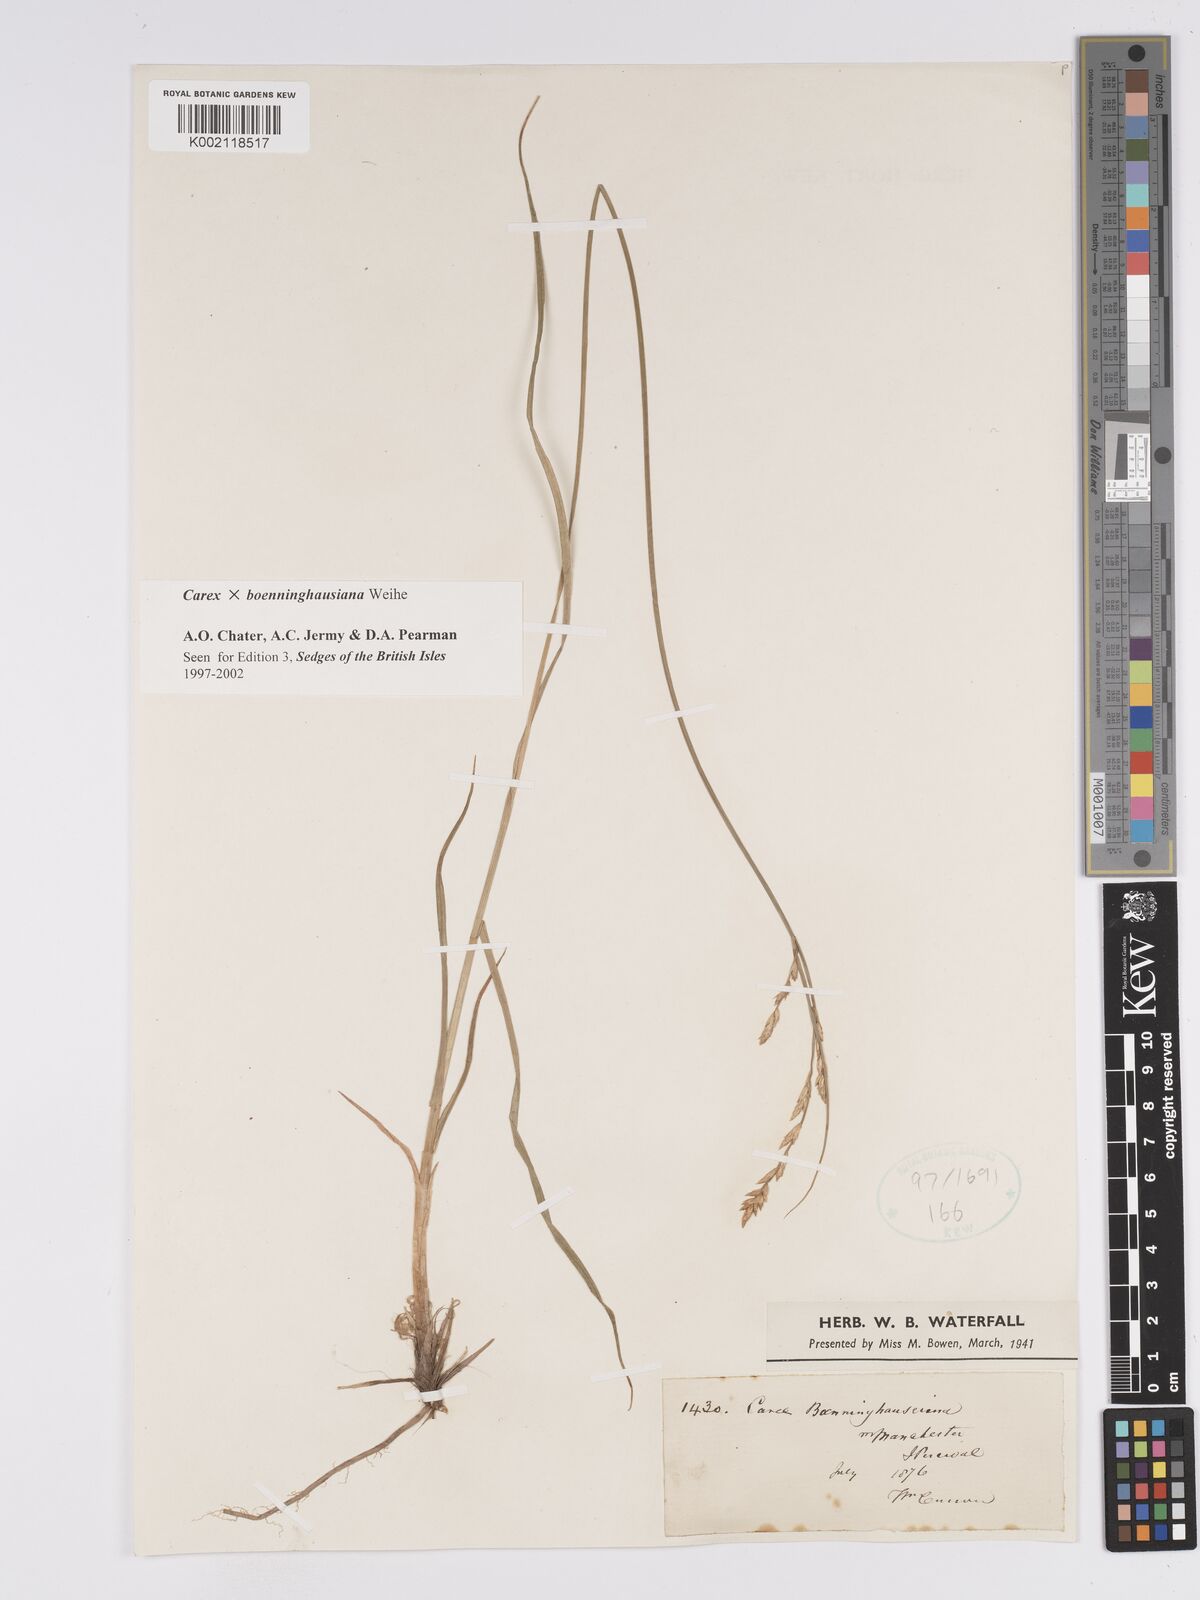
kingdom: Plantae
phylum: Tracheophyta
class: Liliopsida
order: Poales
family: Cyperaceae
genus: Carex
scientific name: Carex boenninghausiana
